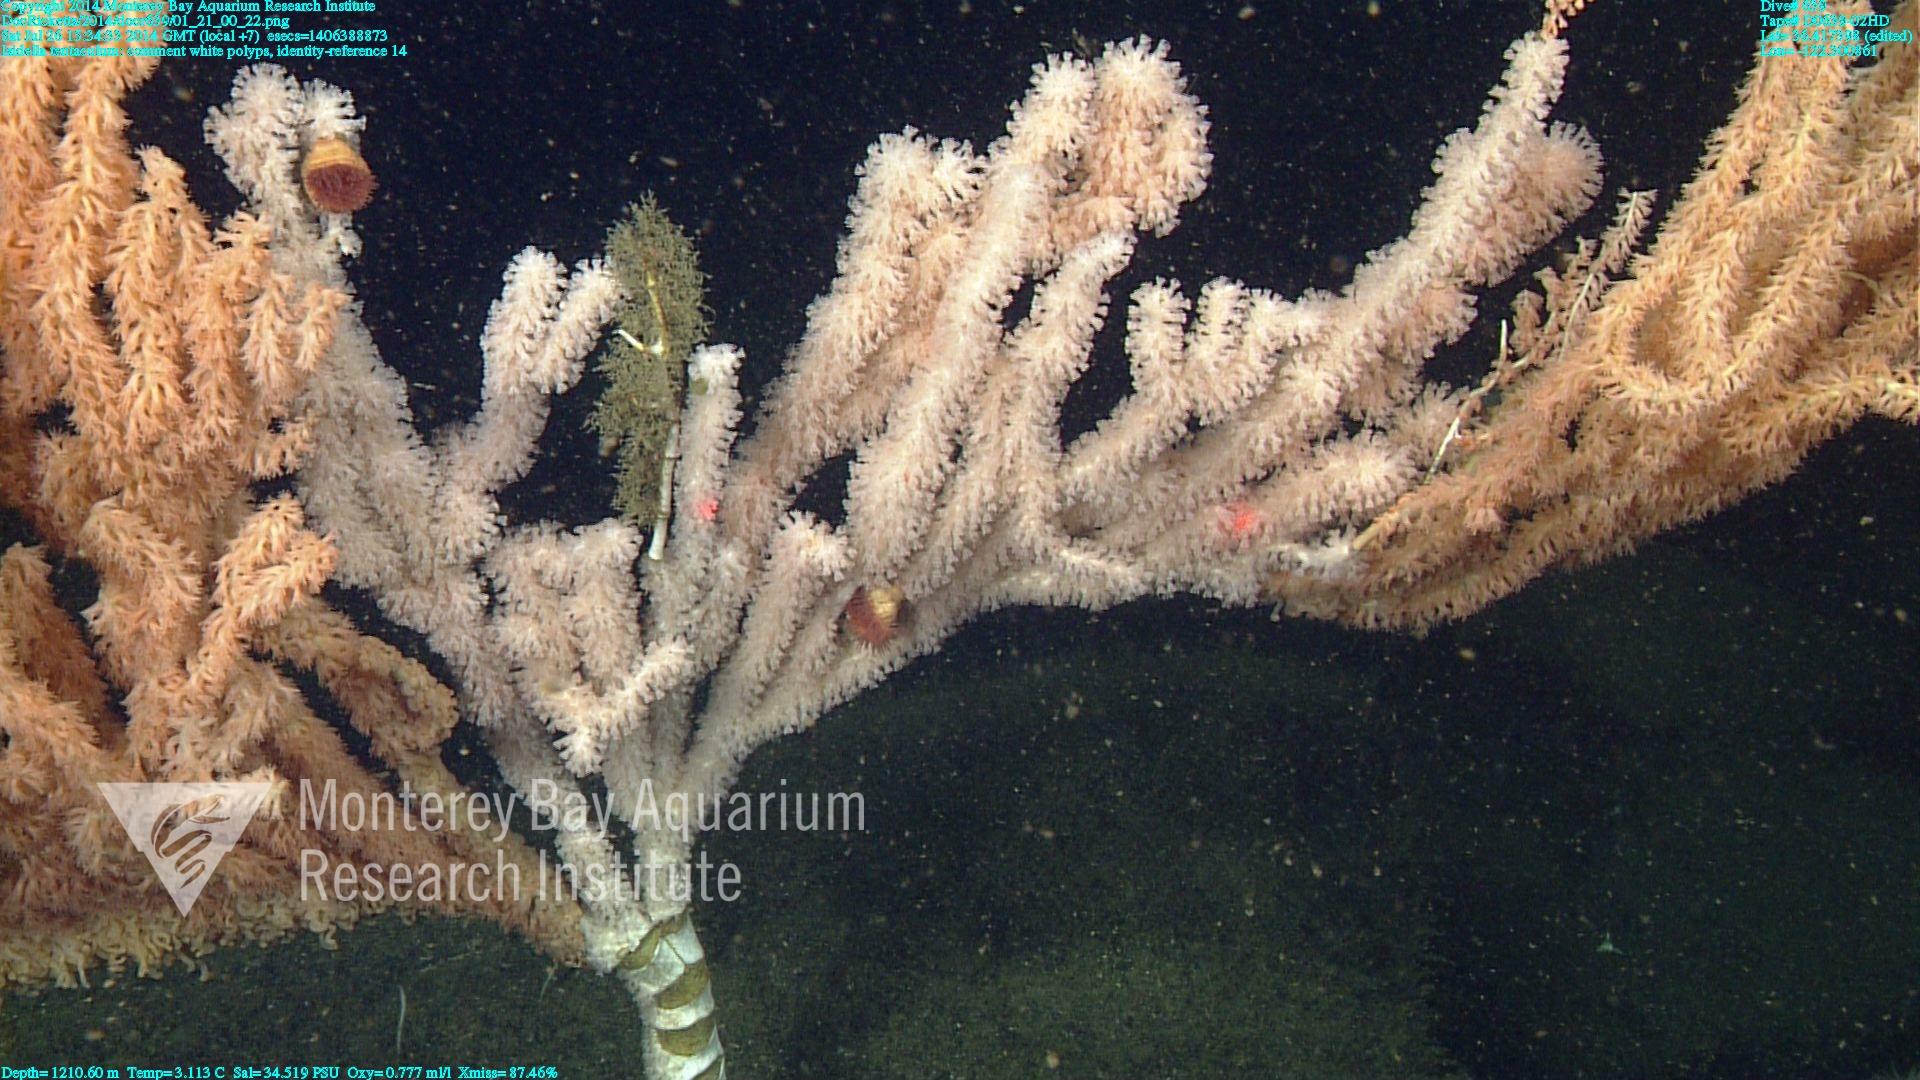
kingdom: Animalia
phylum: Cnidaria
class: Anthozoa
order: Scleralcyonacea
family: Keratoisididae
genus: Isidella
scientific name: Isidella tentaculum
